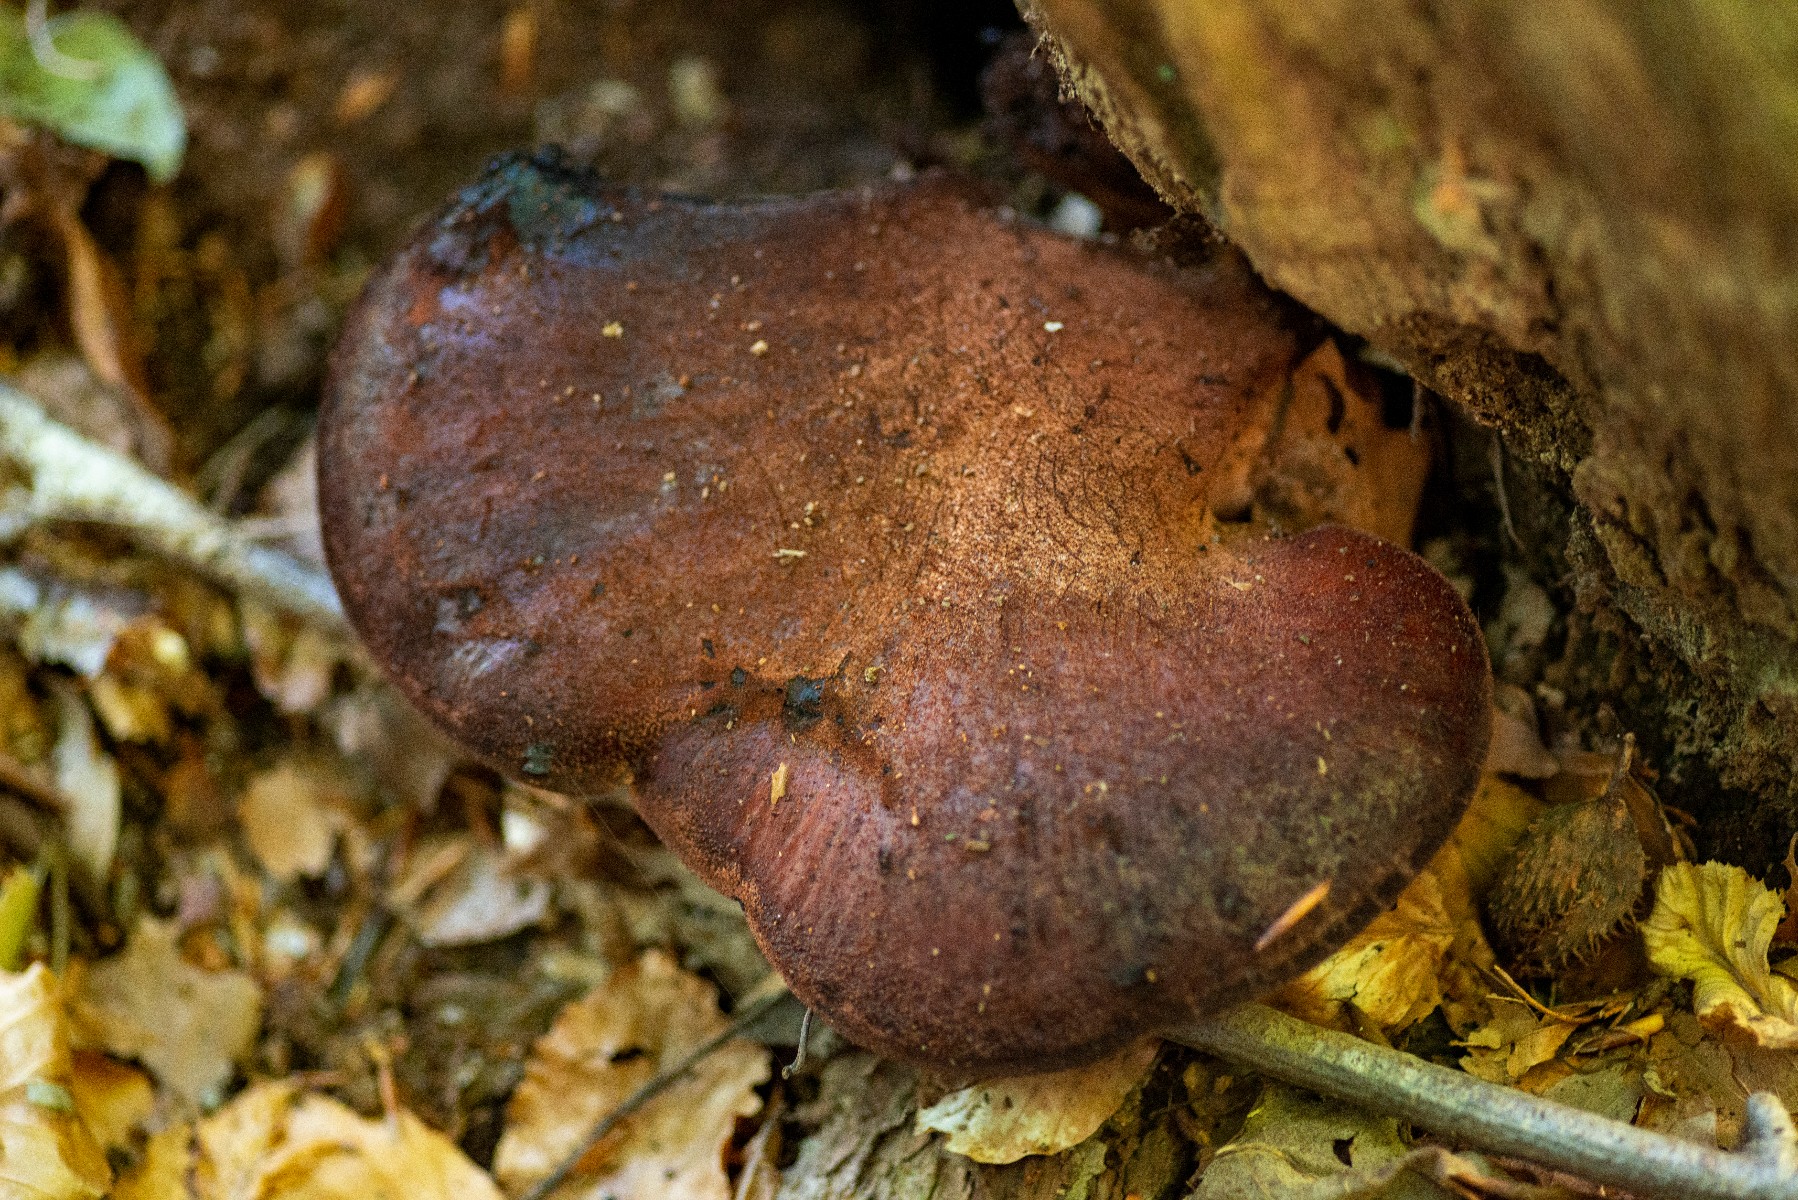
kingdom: Fungi
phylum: Basidiomycota
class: Agaricomycetes
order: Agaricales
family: Fistulinaceae
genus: Fistulina
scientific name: Fistulina hepatica
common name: oksetunge
